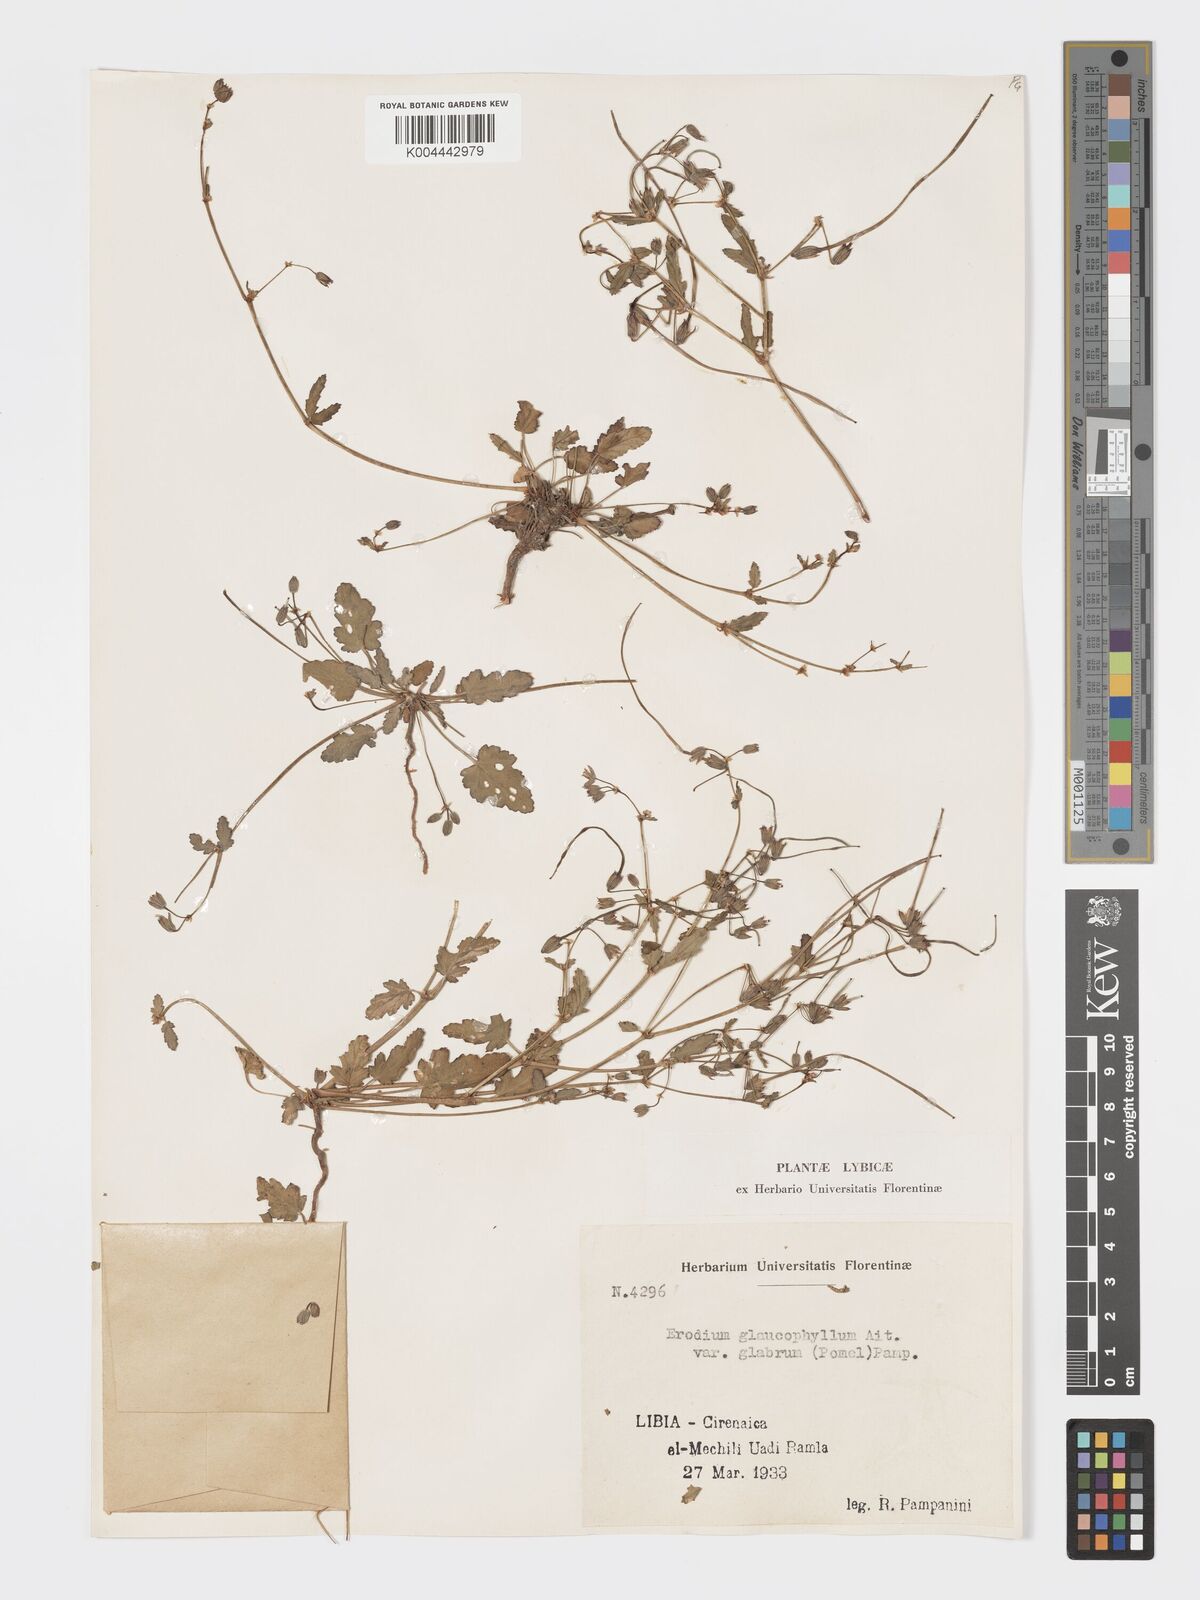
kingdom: Plantae
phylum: Tracheophyta
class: Magnoliopsida
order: Geraniales
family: Geraniaceae
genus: Erodium
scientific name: Erodium glaucophyllum
